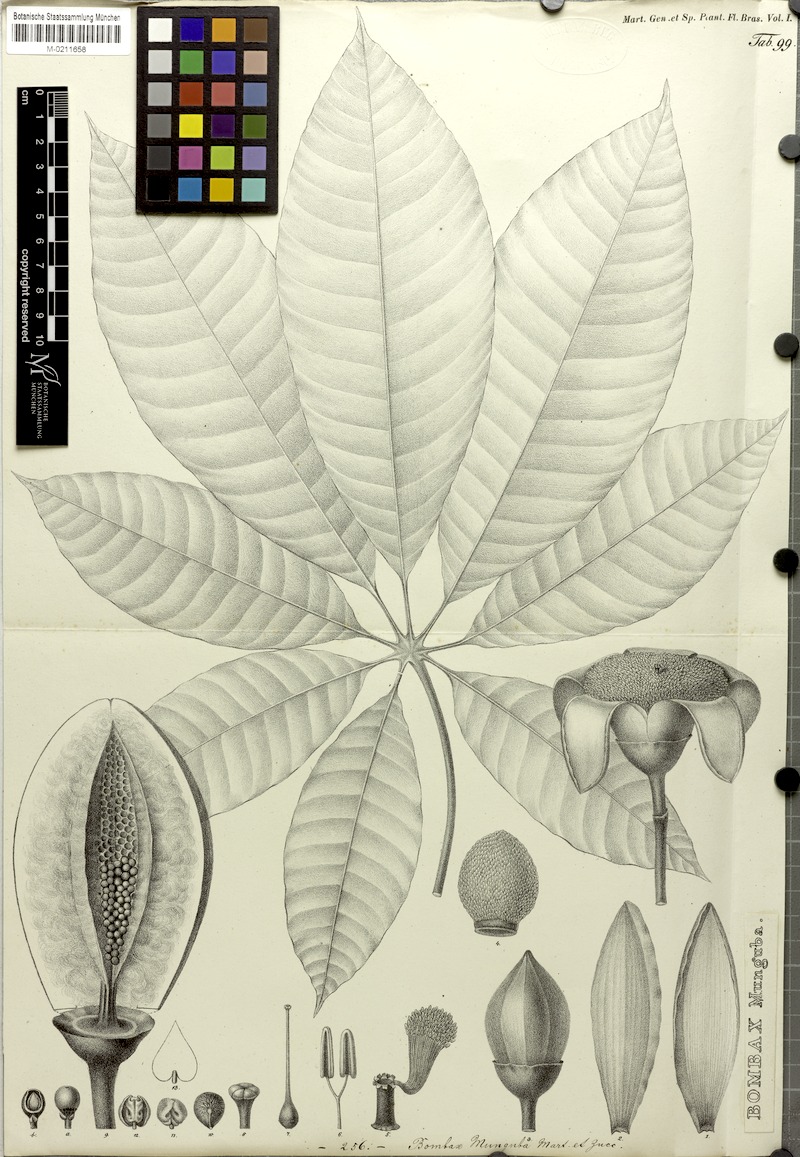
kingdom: Plantae
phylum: Tracheophyta
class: Magnoliopsida
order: Malvales
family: Malvaceae
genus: Pseudobombax
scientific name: Pseudobombax munguba
